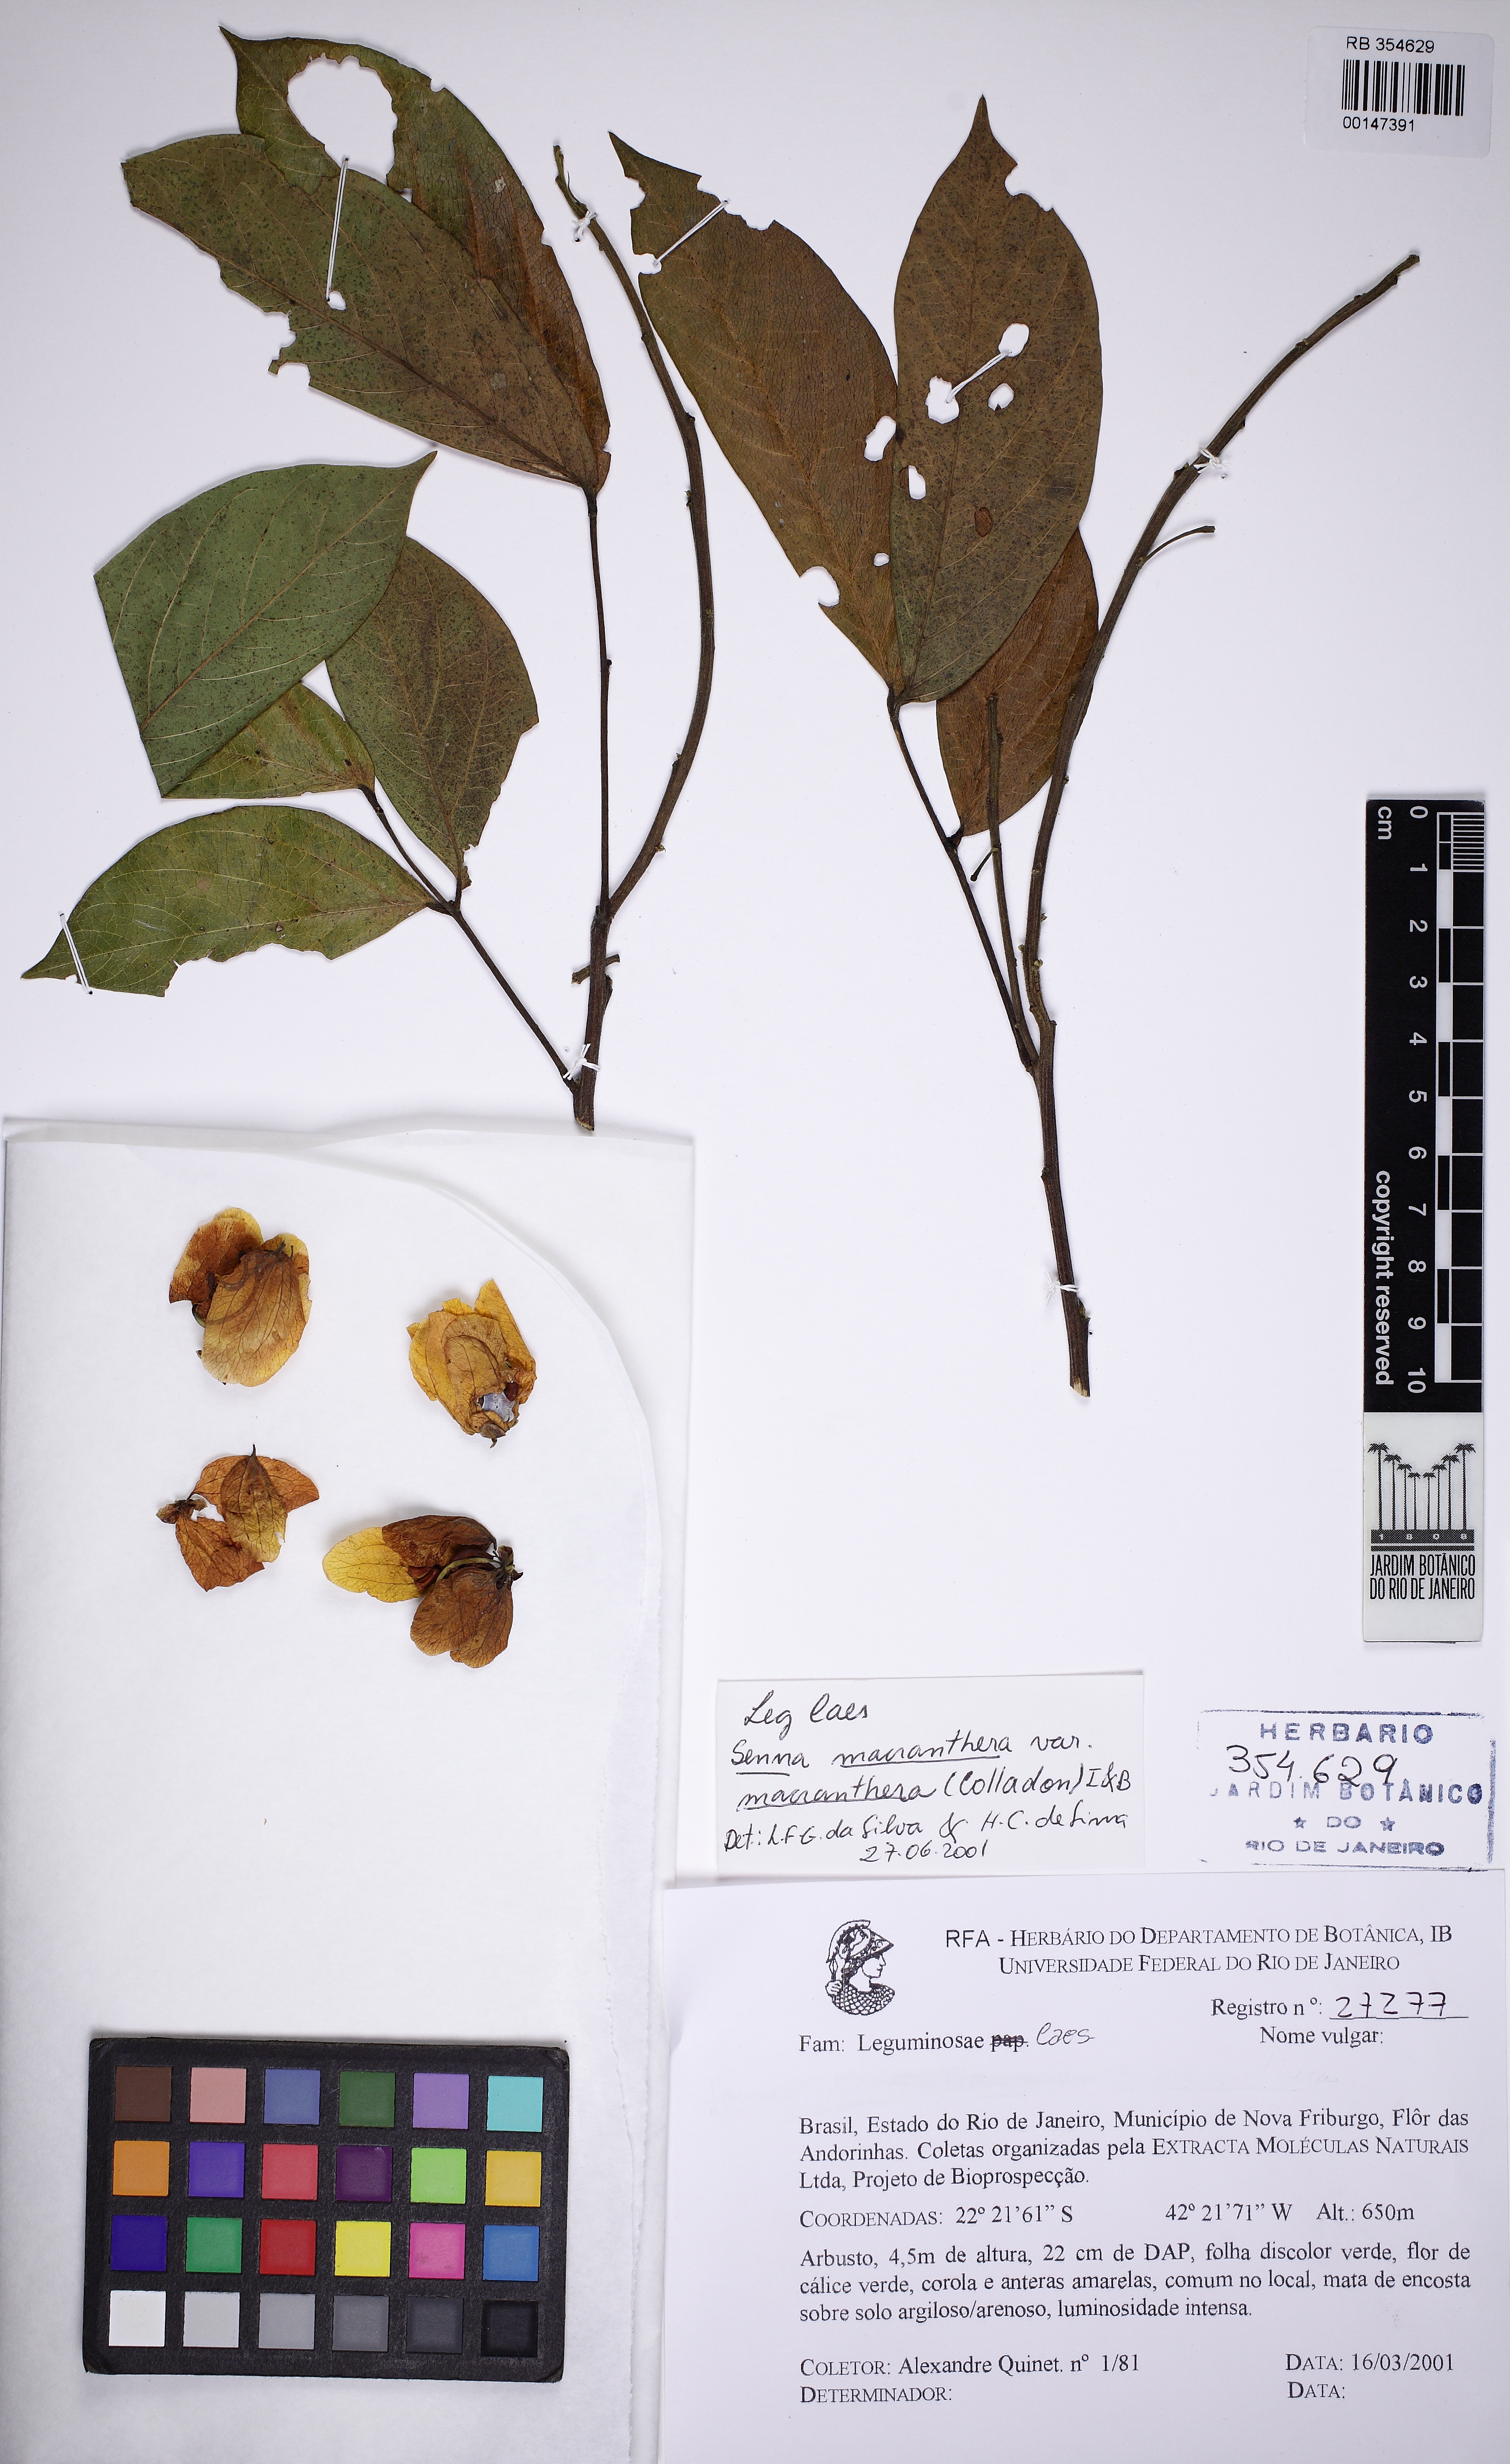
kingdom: Plantae
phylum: Tracheophyta
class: Magnoliopsida
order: Fabales
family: Fabaceae
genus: Senna
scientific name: Senna macranthera
